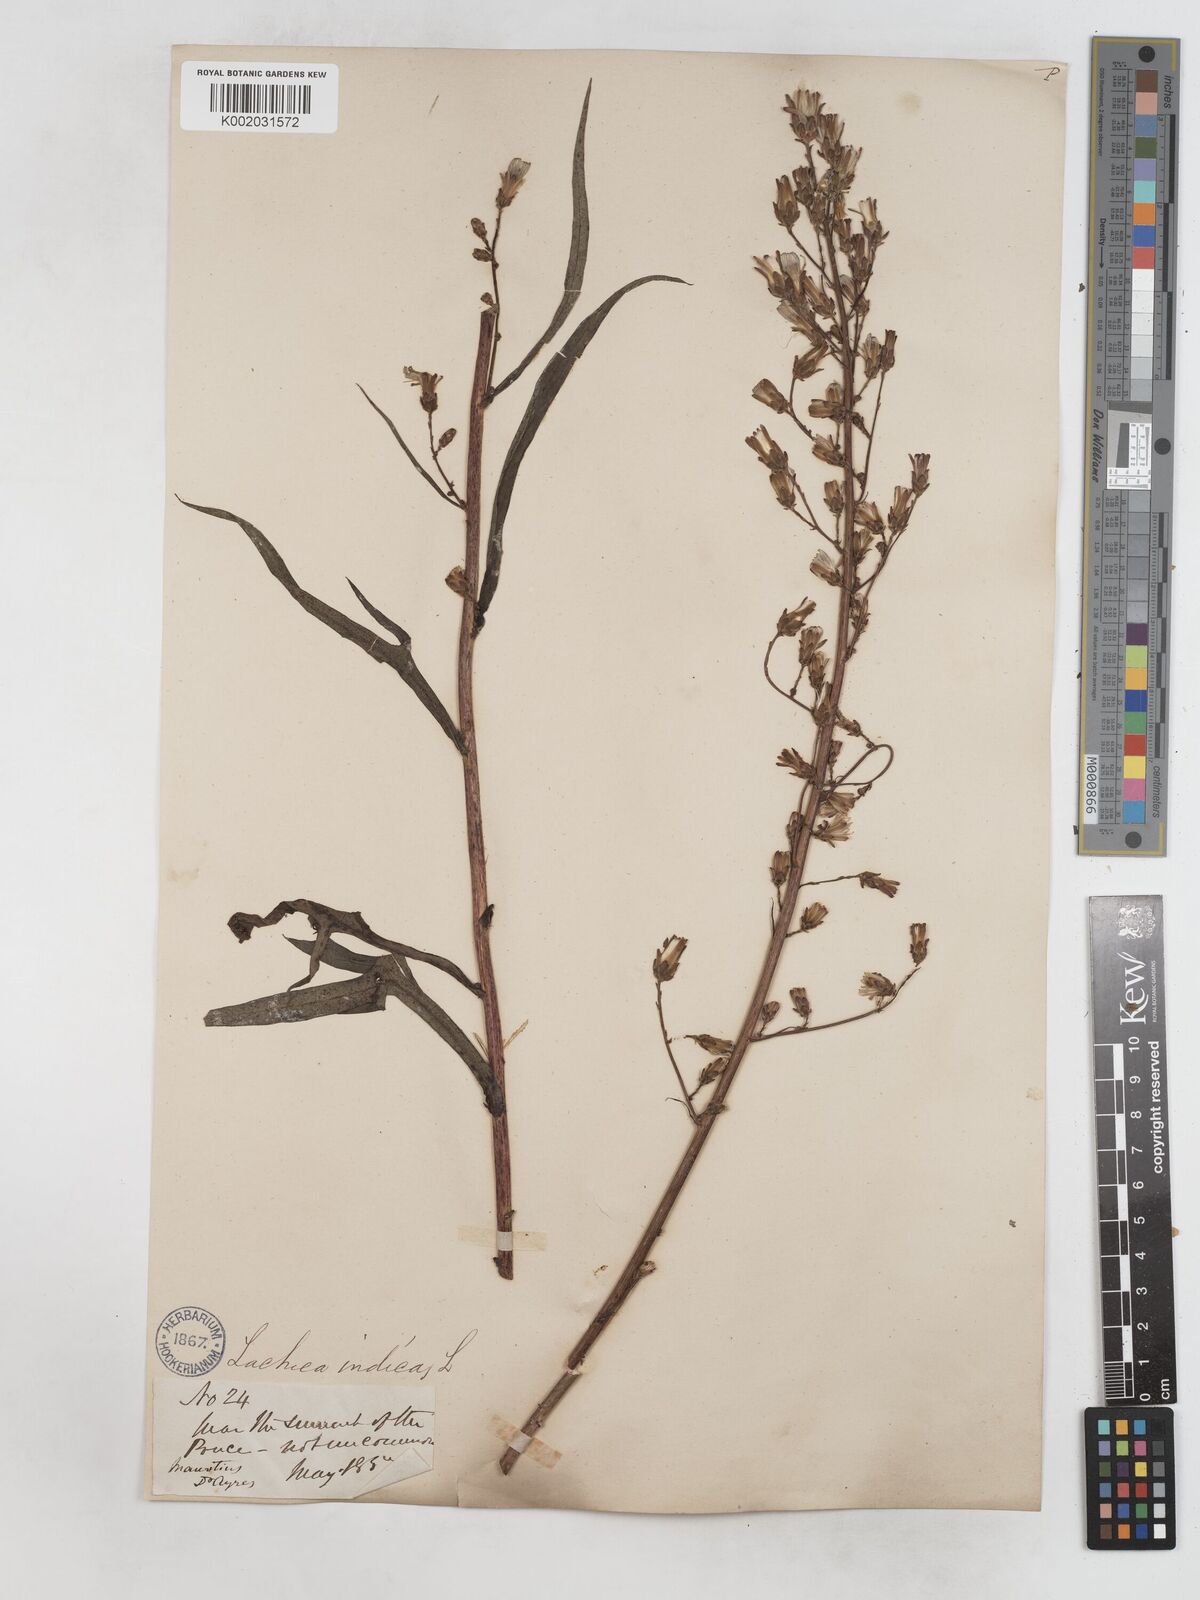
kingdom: Plantae
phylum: Tracheophyta
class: Magnoliopsida
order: Asterales
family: Asteraceae
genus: Lactuca
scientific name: Lactuca
